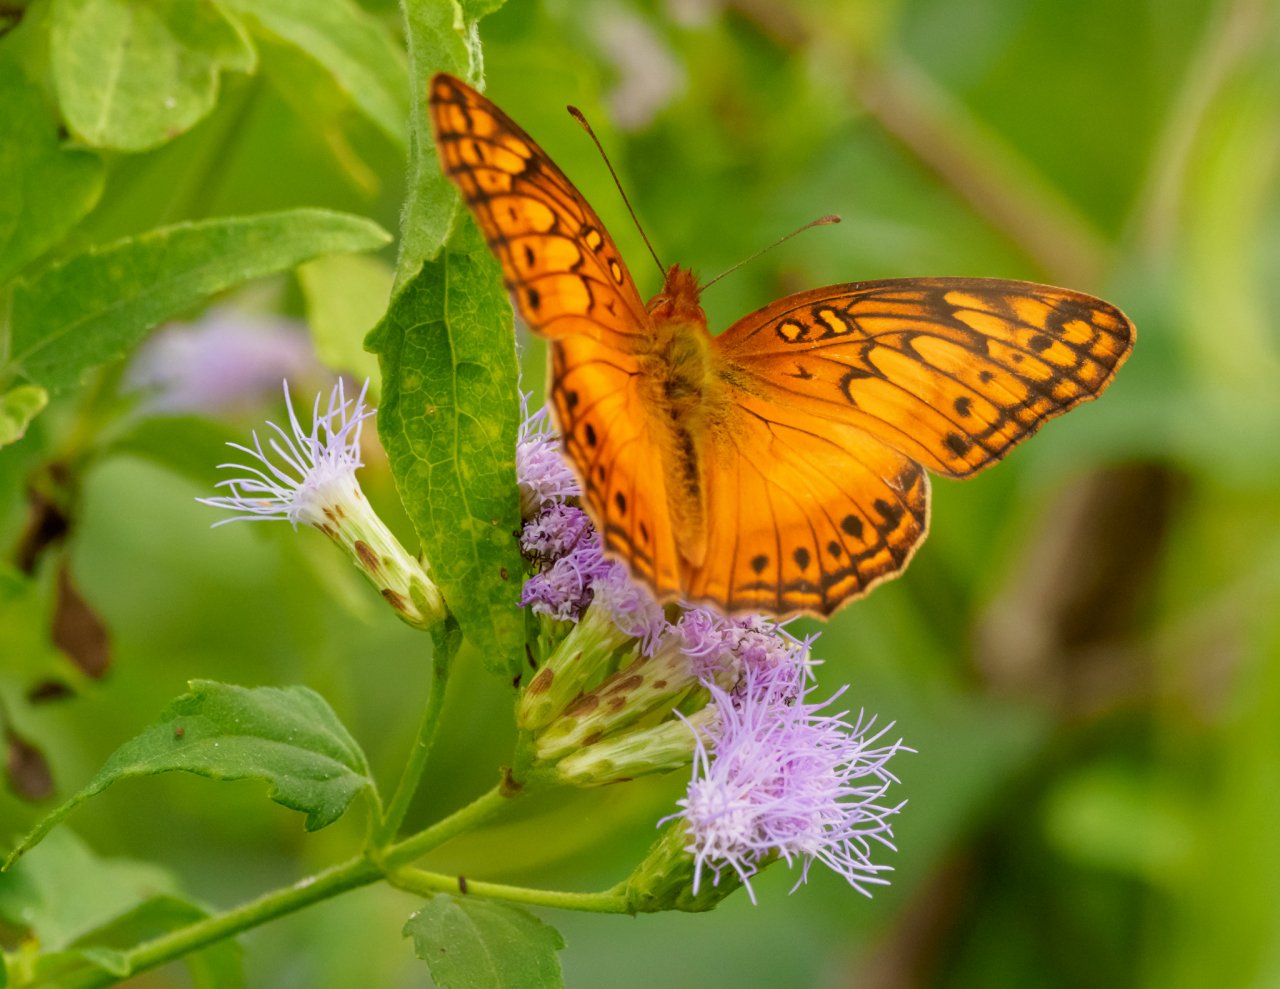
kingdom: Animalia
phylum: Arthropoda
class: Insecta
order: Lepidoptera
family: Nymphalidae
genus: Euptoieta
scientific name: Euptoieta hegesia
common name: Mexican Fritillary
